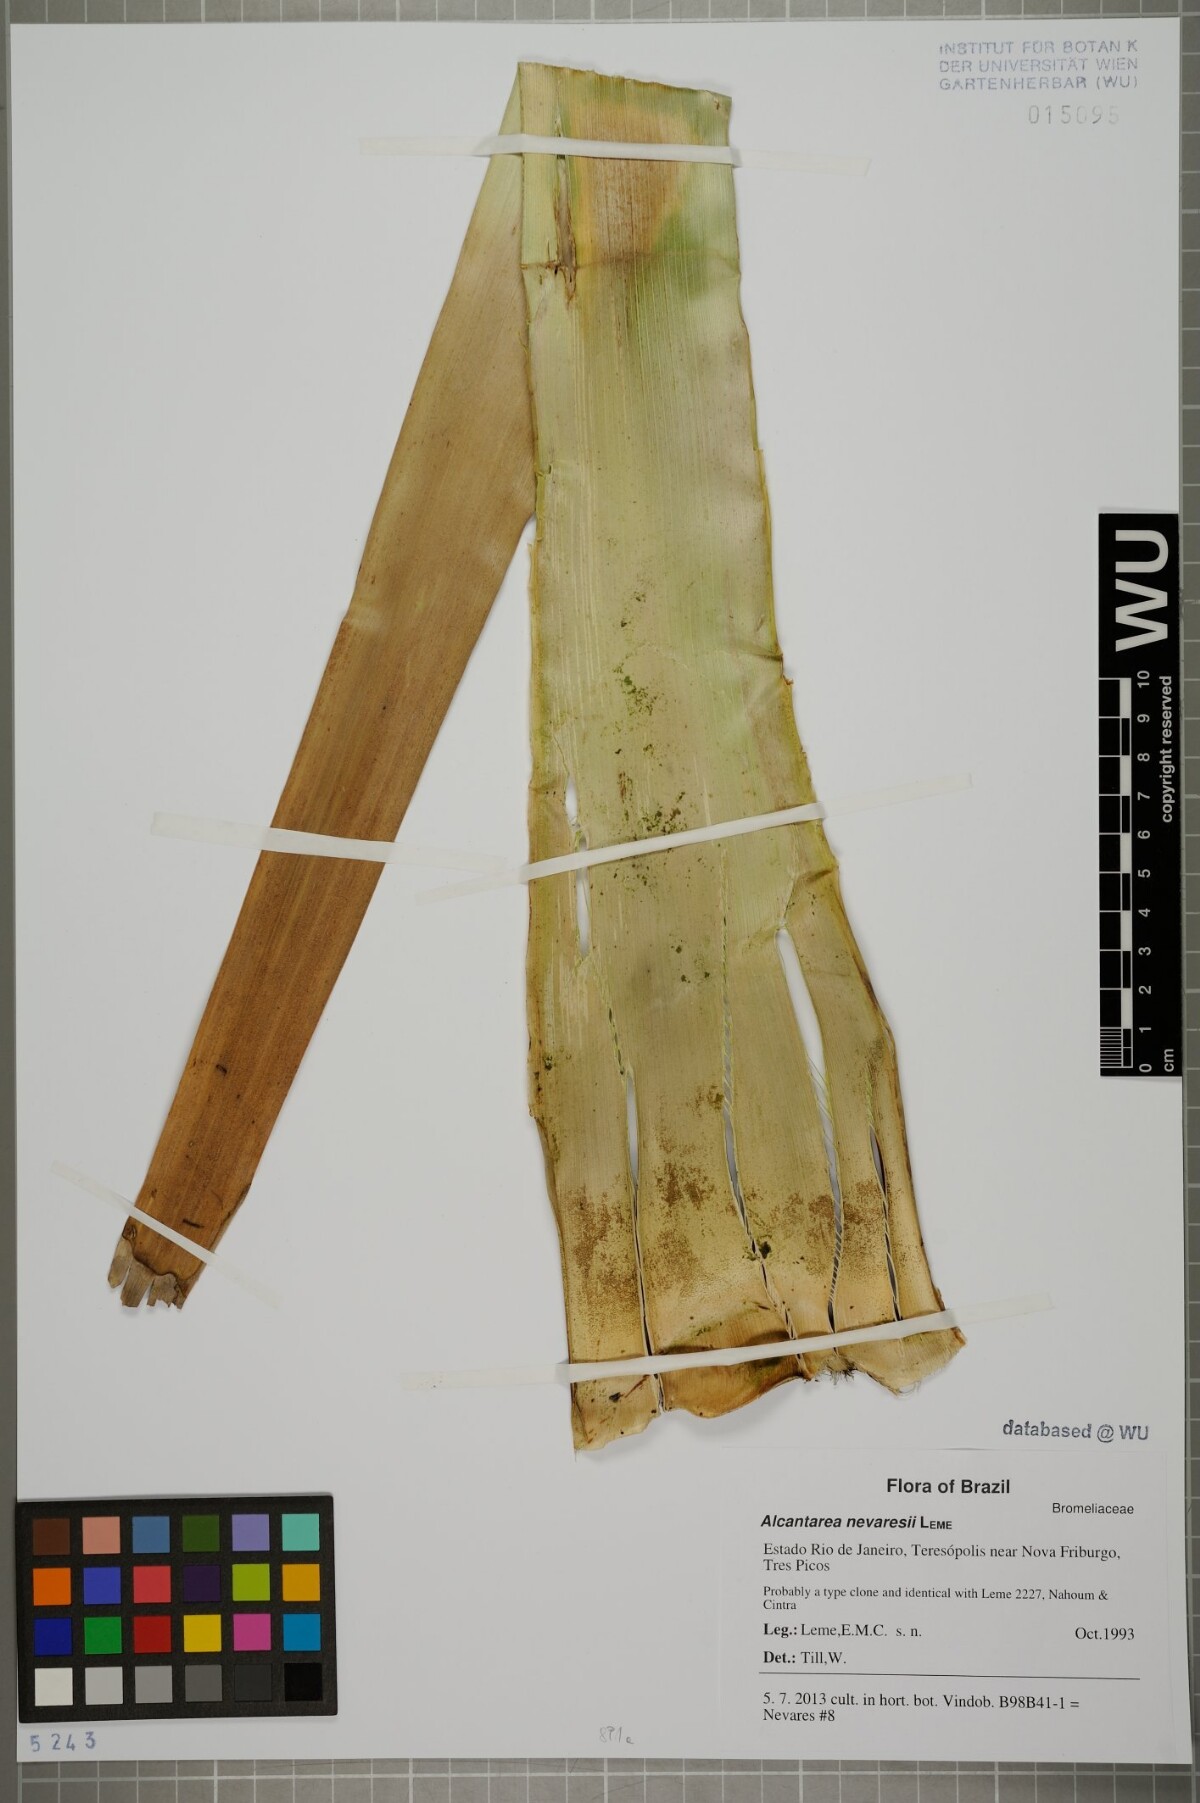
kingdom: Plantae
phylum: Tracheophyta
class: Liliopsida
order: Poales
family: Bromeliaceae
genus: Alcantarea
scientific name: Alcantarea nevaresii
